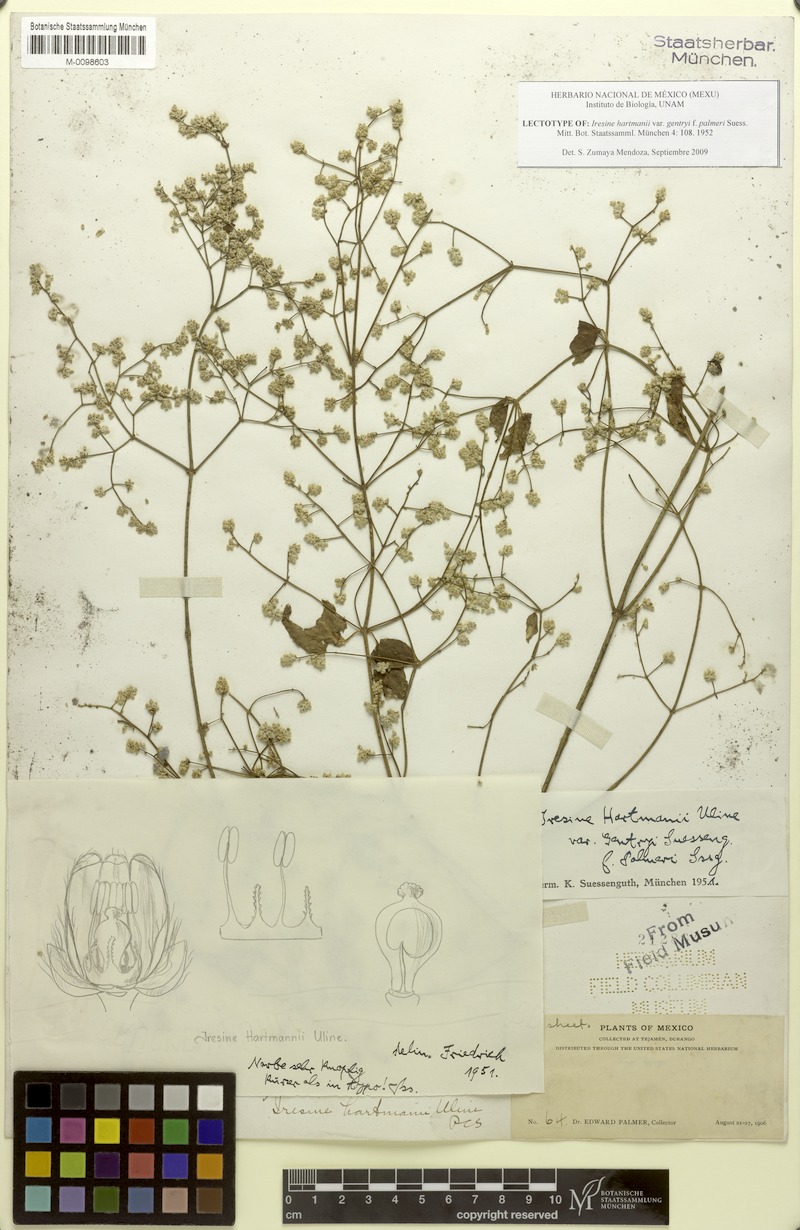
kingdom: Plantae
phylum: Tracheophyta
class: Magnoliopsida
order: Caryophyllales
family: Amaranthaceae
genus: Iresine
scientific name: Iresine rzedowskii
